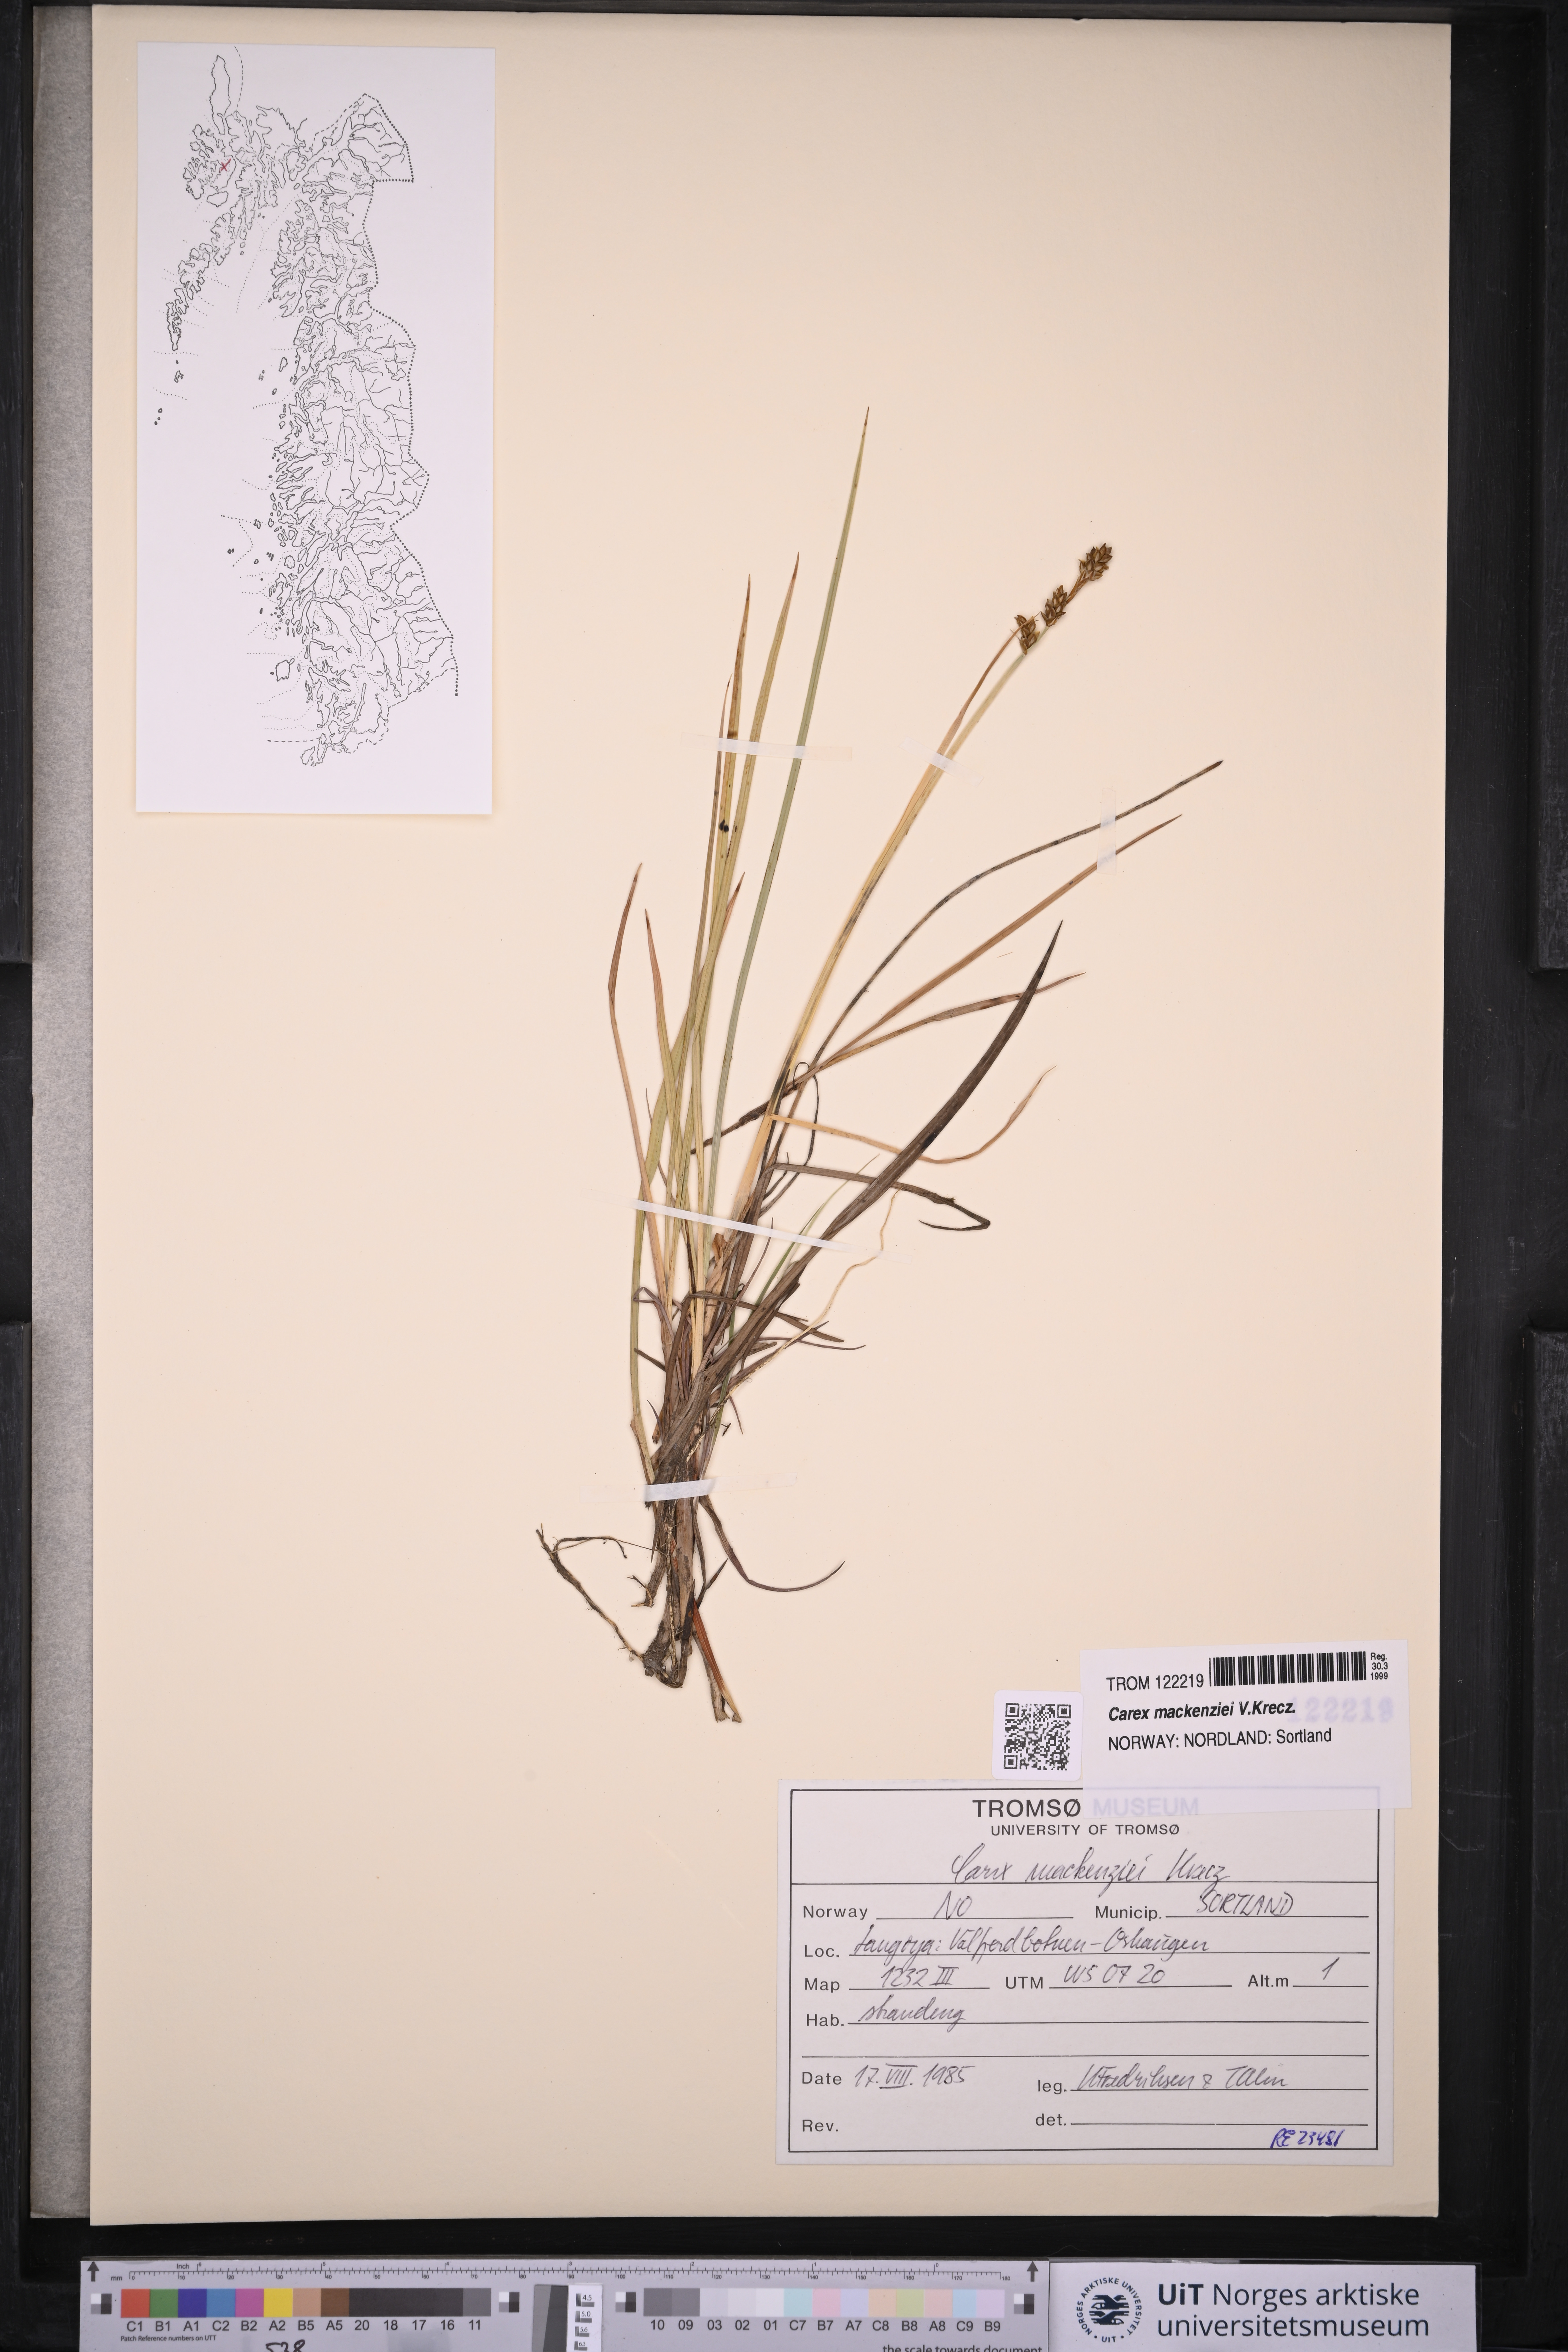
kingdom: Plantae
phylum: Tracheophyta
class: Liliopsida
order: Poales
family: Cyperaceae
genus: Carex
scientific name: Carex mackenziei
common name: Mackenzie's sedge
